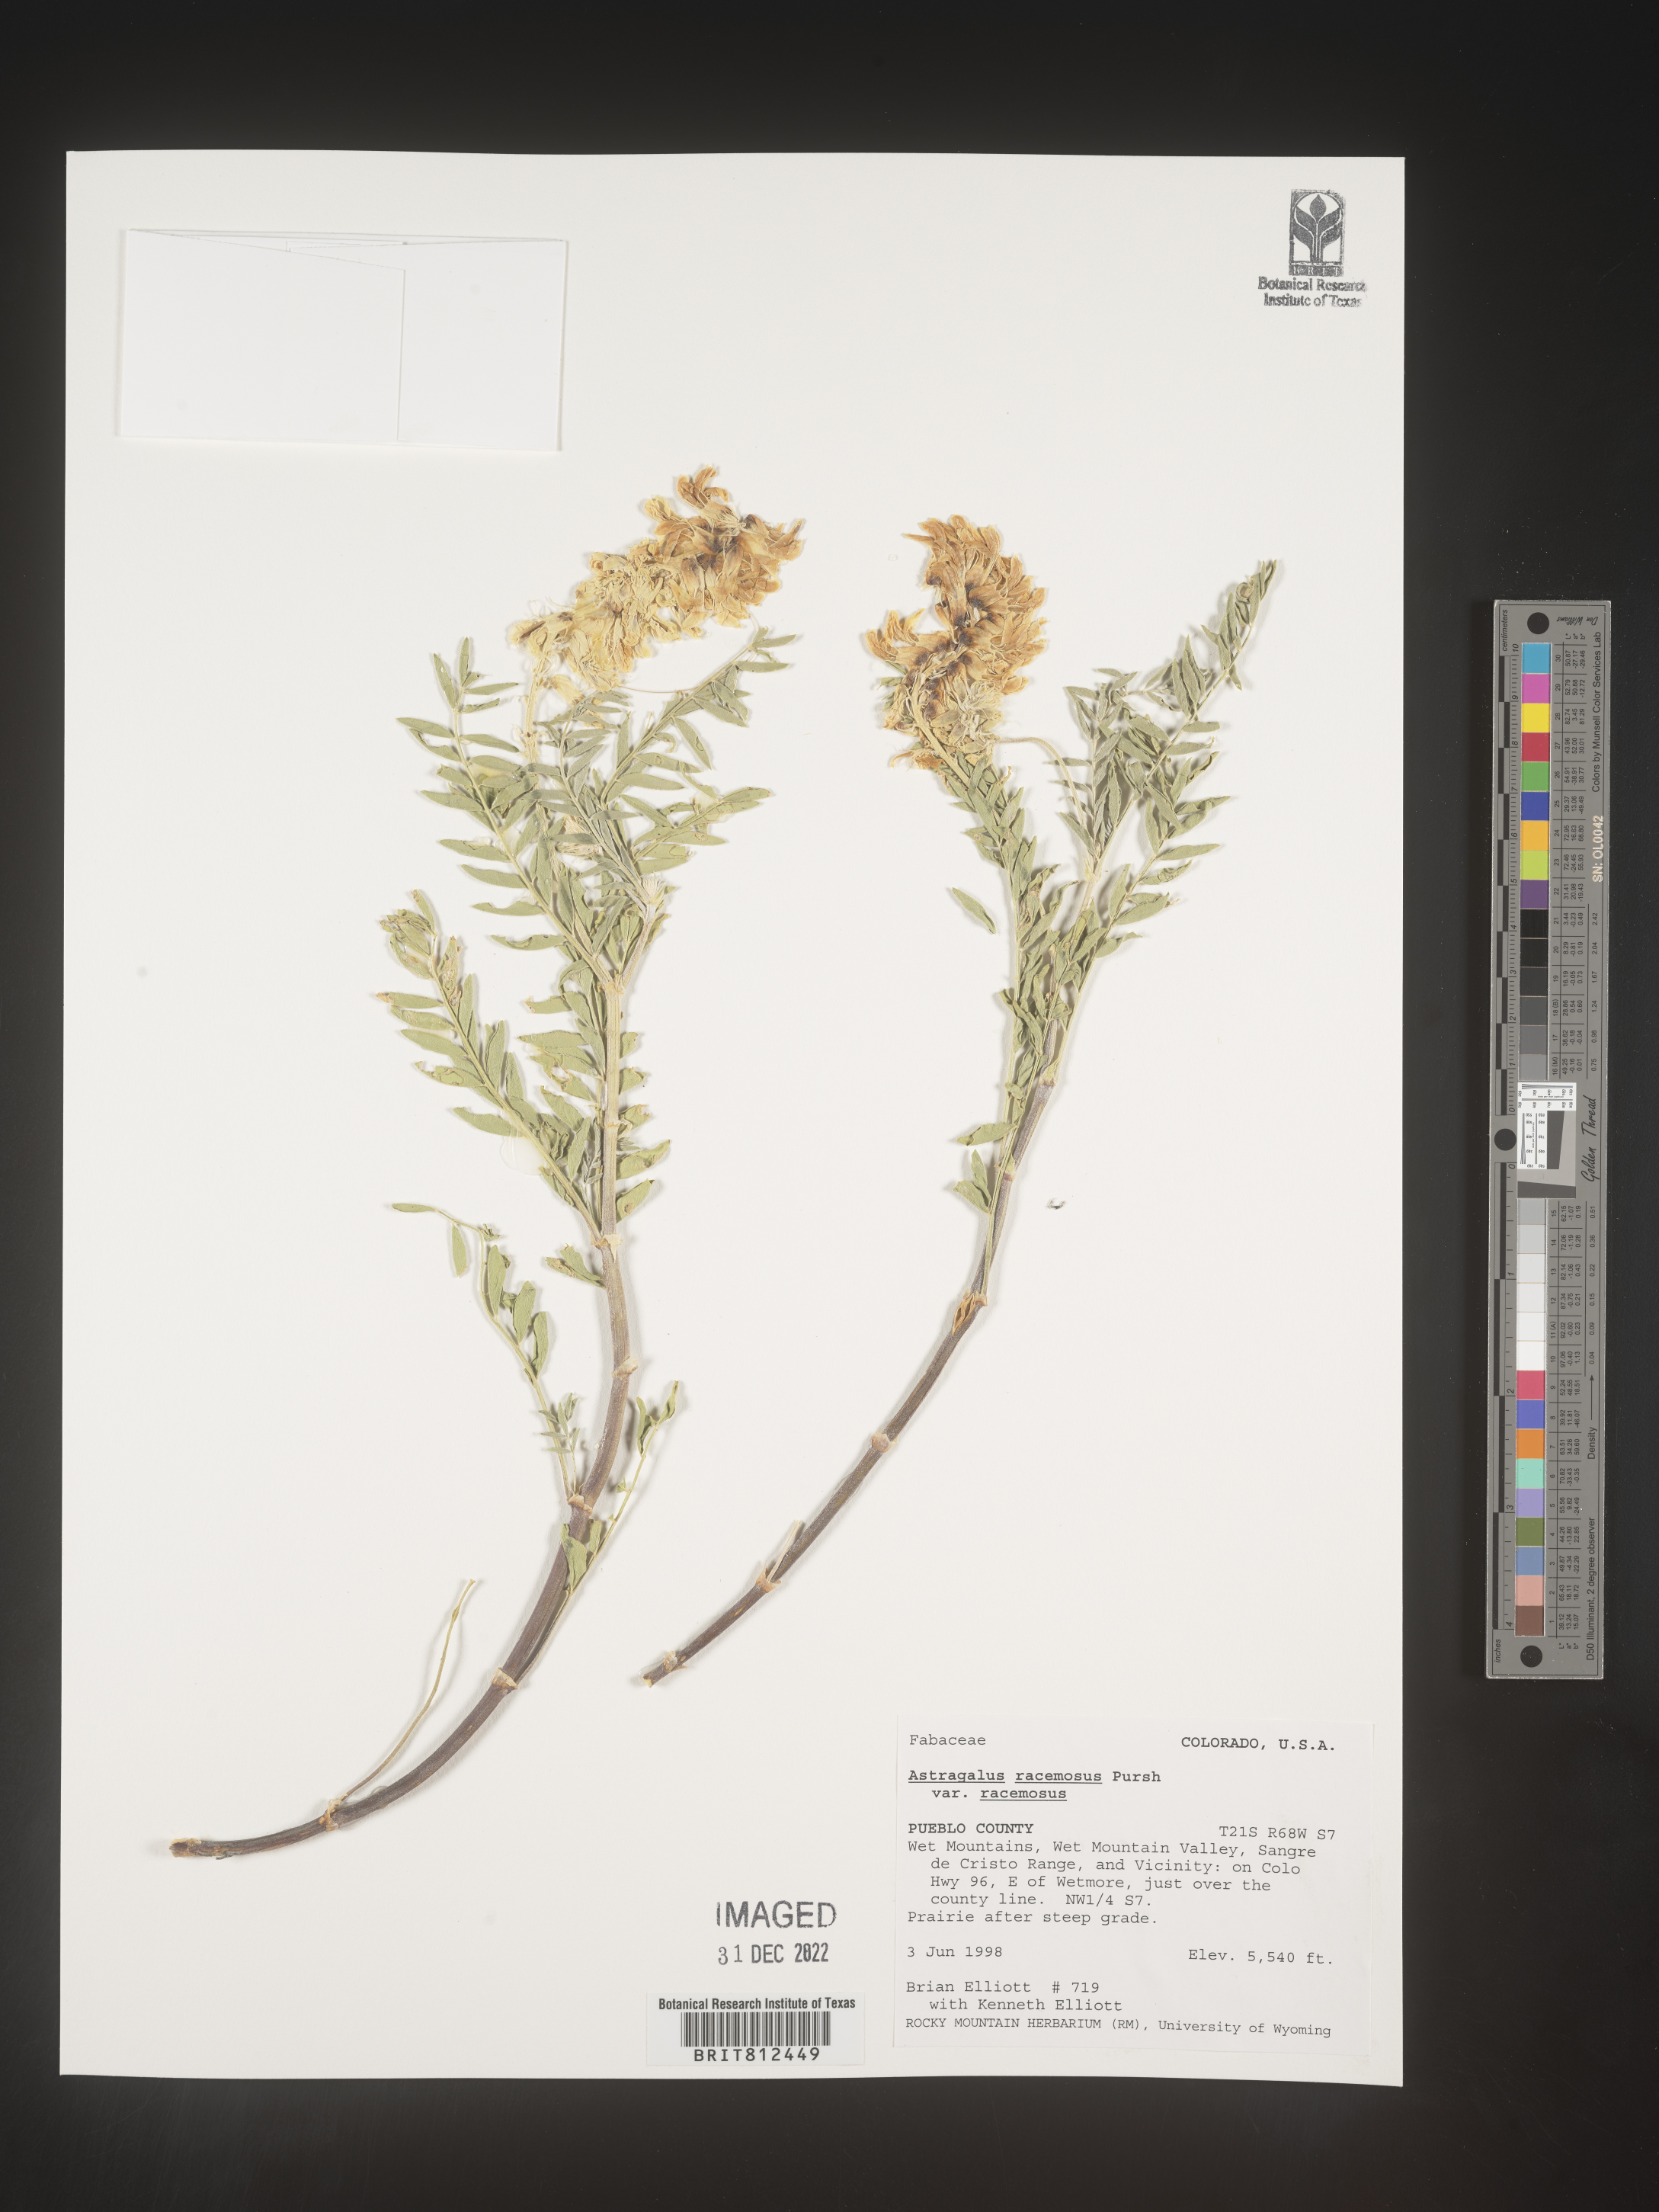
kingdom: Plantae
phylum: Tracheophyta
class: Magnoliopsida
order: Fabales
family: Fabaceae
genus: Astragalus
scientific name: Astragalus racemosus
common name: Alkali milk-vetch
